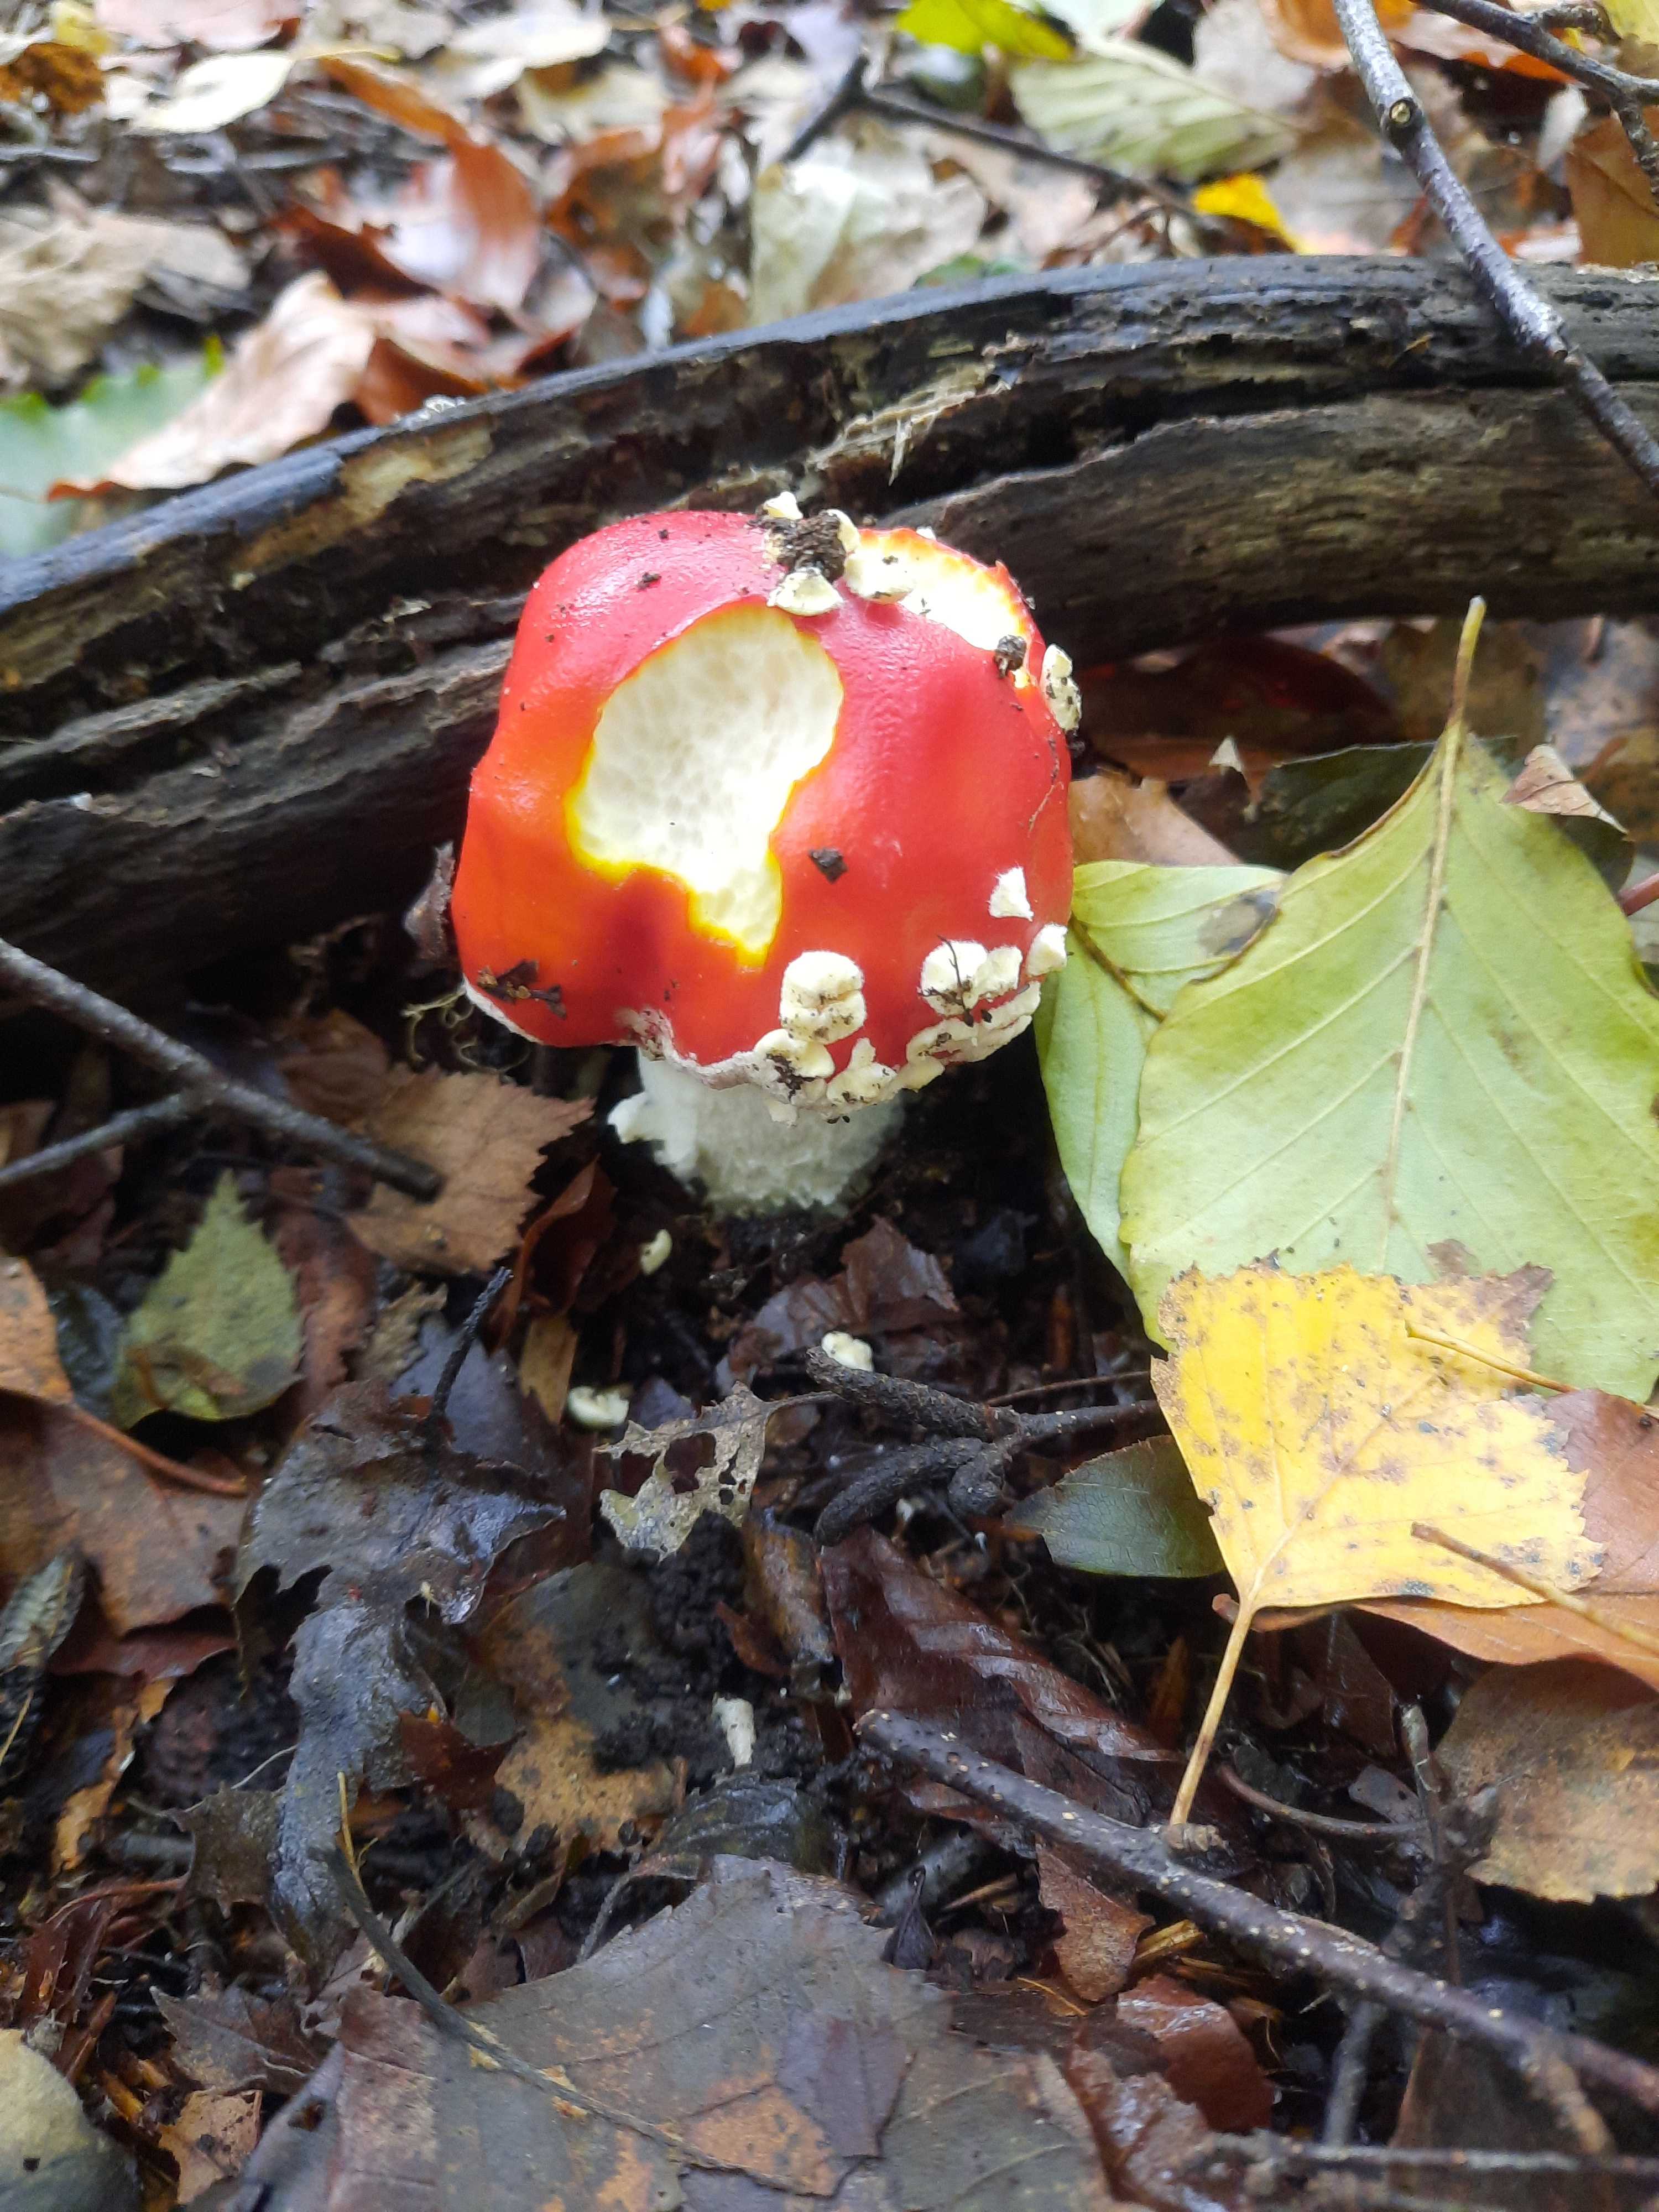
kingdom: Fungi
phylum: Basidiomycota
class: Agaricomycetes
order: Agaricales
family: Amanitaceae
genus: Amanita
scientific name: Amanita muscaria
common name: rød fluesvamp
